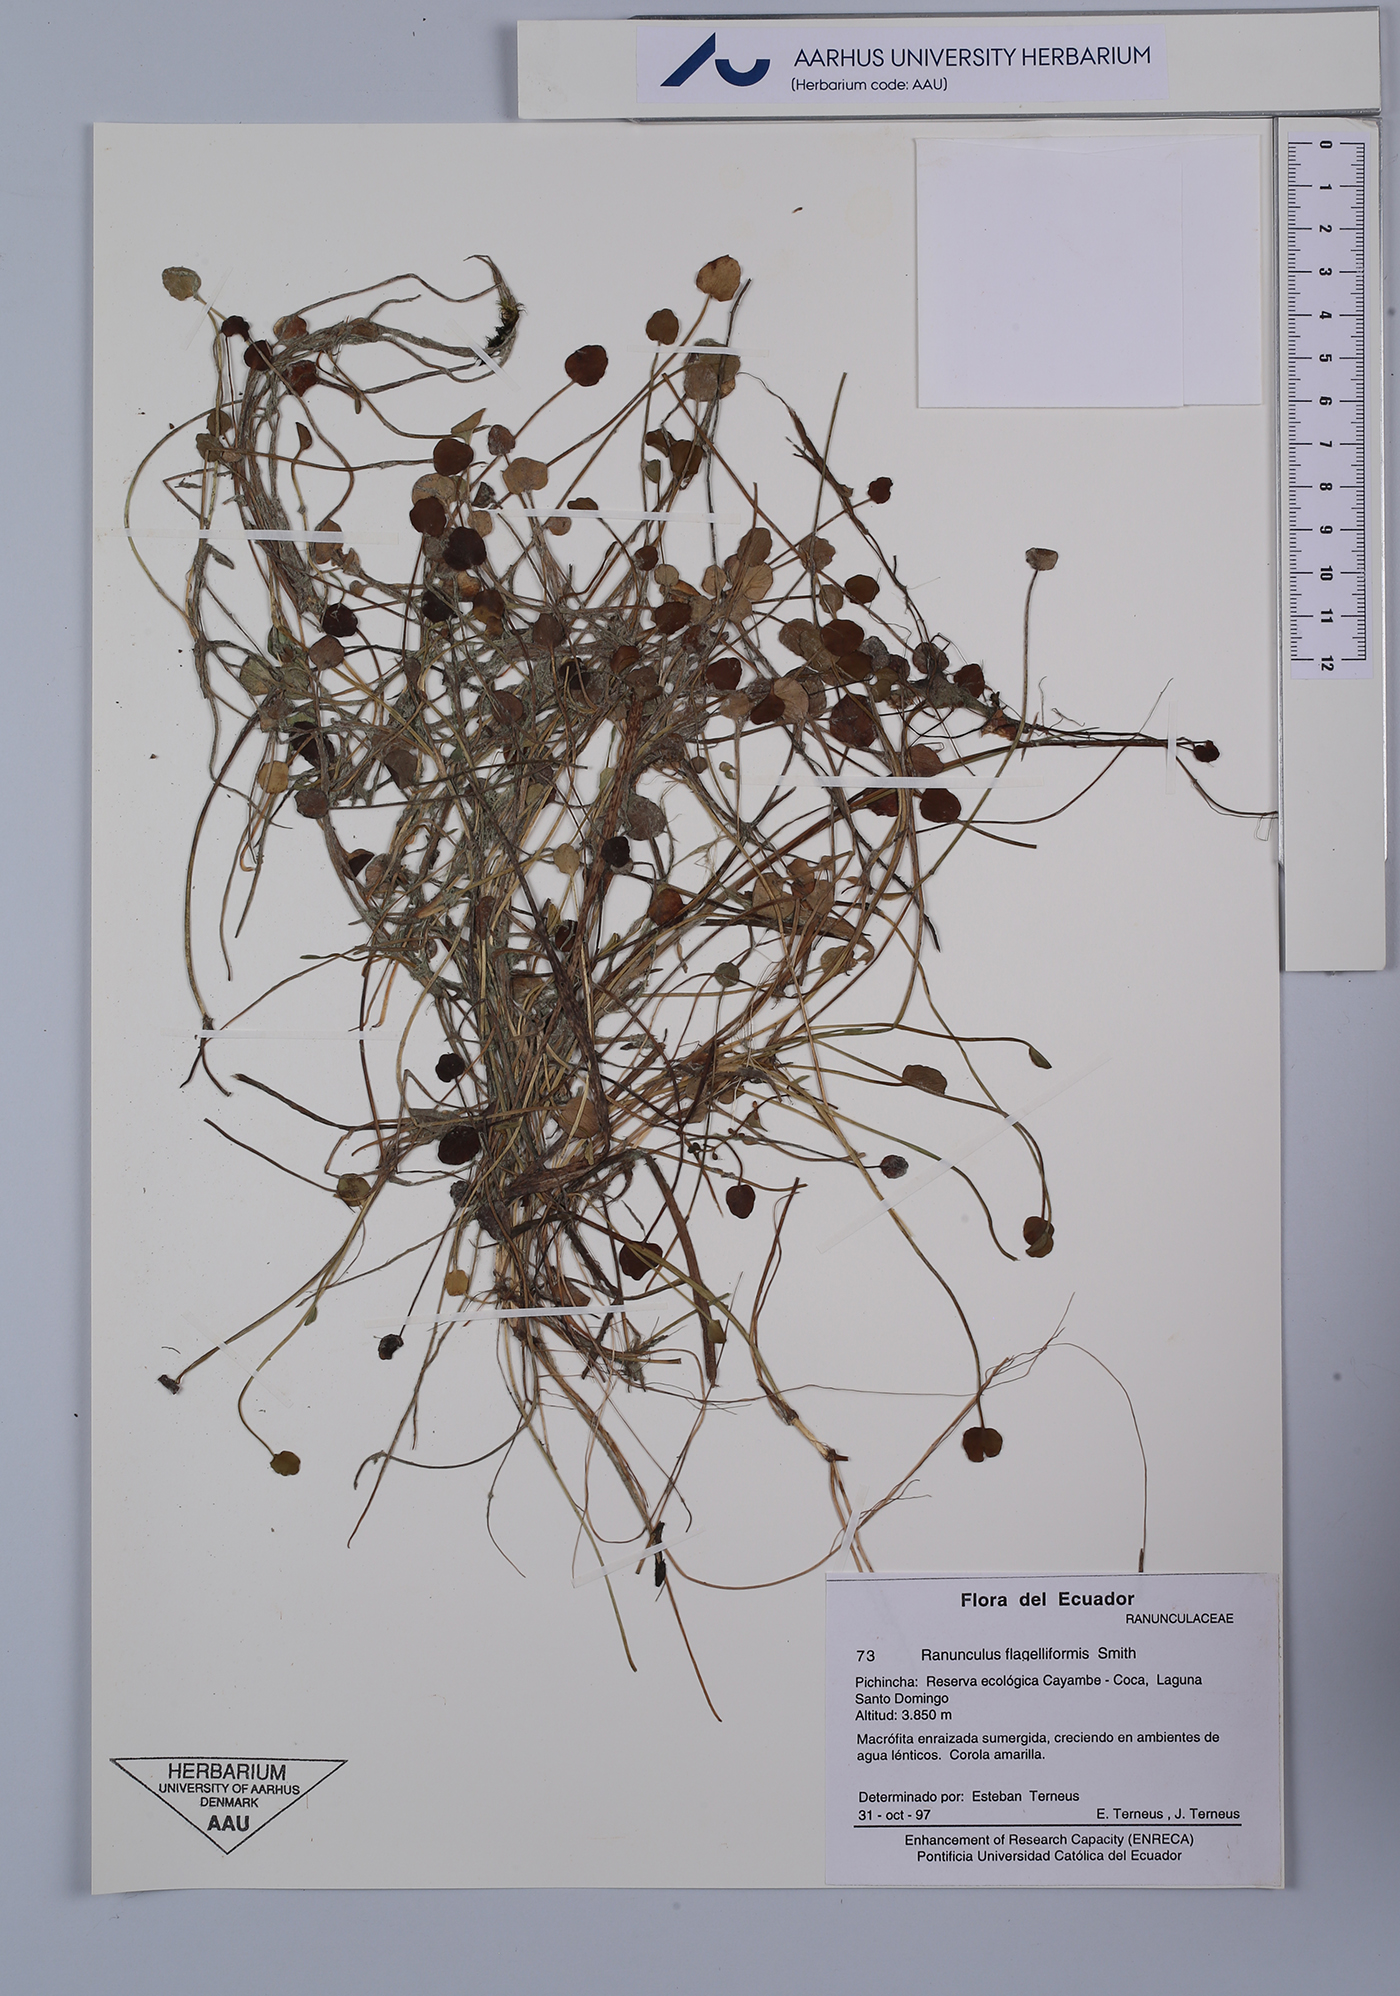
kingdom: Plantae
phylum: Tracheophyta
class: Magnoliopsida
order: Ranunculales
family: Ranunculaceae
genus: Ranunculus
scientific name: Ranunculus flagelliformis
